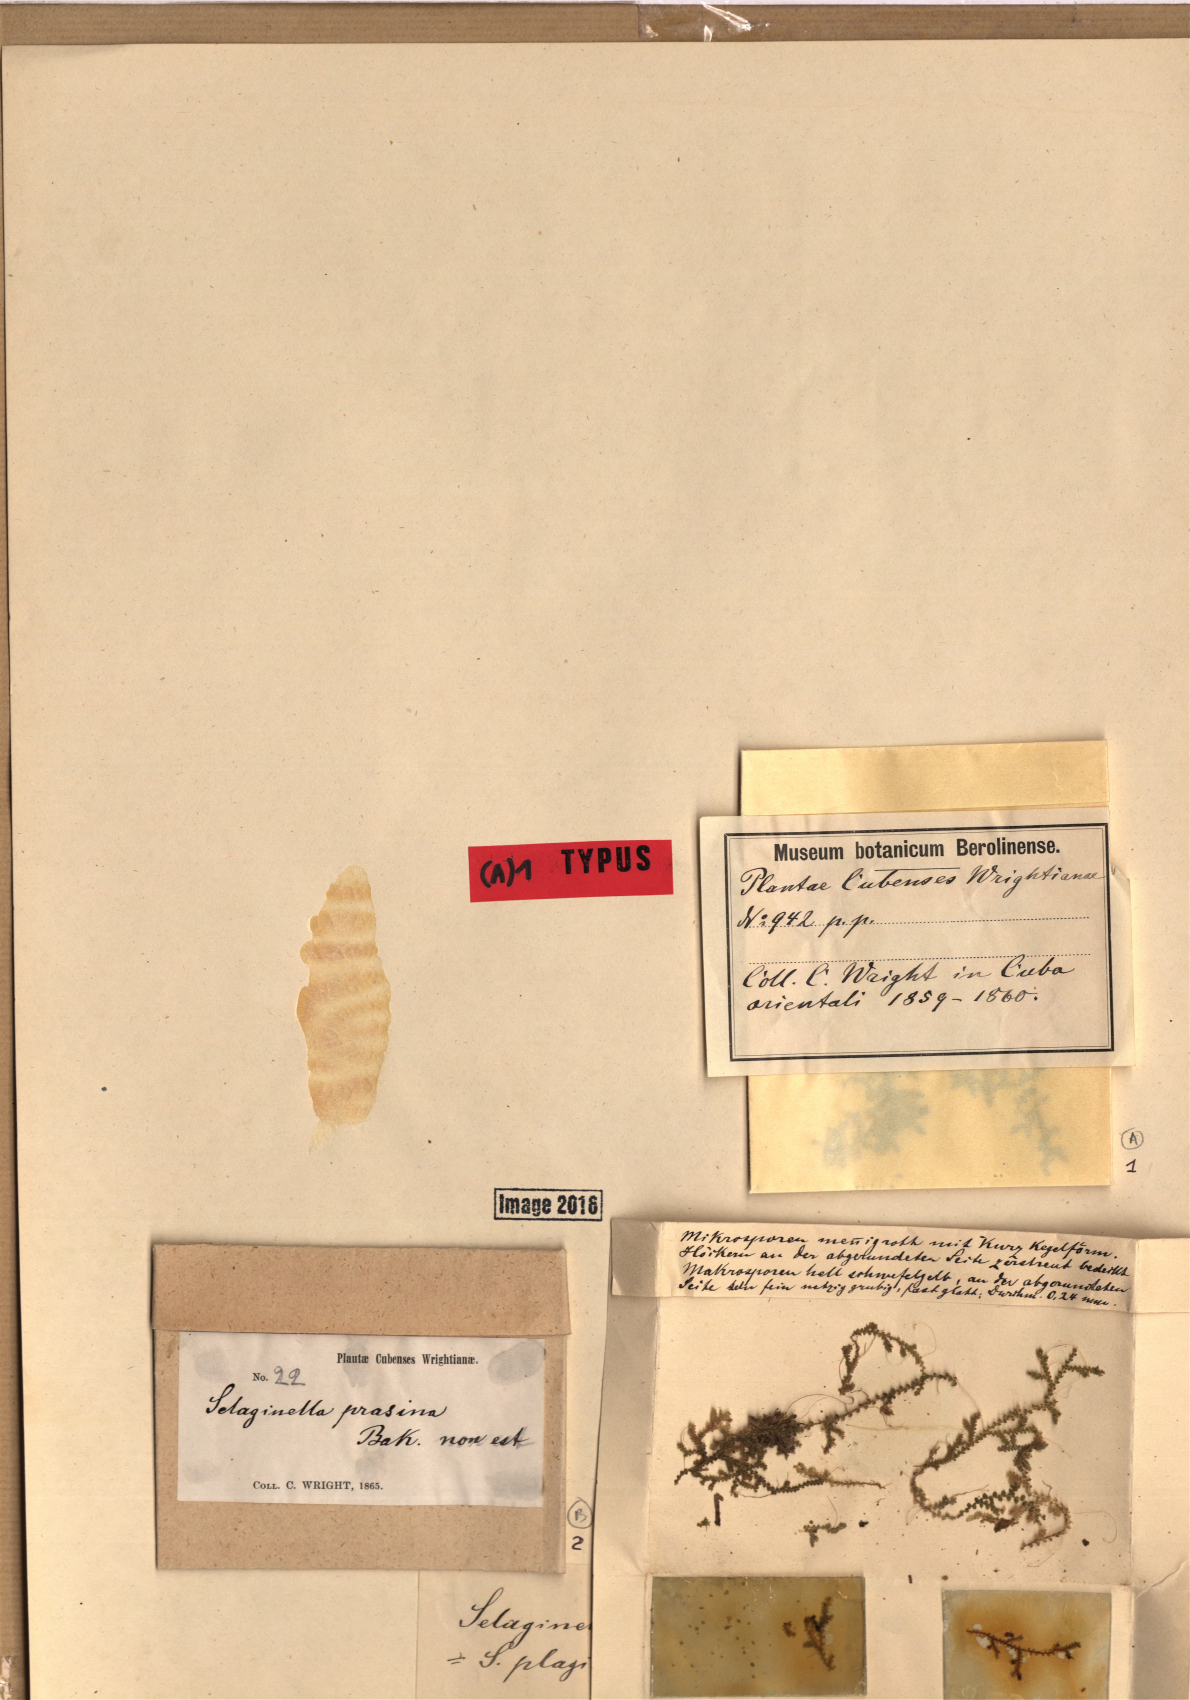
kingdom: Plantae
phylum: Tracheophyta
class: Lycopodiopsida
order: Selaginellales
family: Selaginellaceae
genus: Selaginella
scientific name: Selaginella plagiochila
